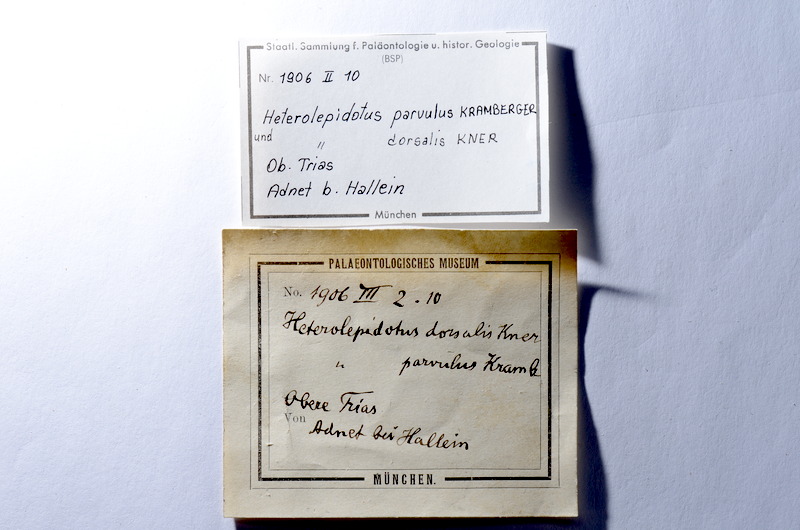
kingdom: Animalia
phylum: Chordata
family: Callipurbeckiidae
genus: Paralepidotus
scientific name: Paralepidotus Lepidotes ornatus
